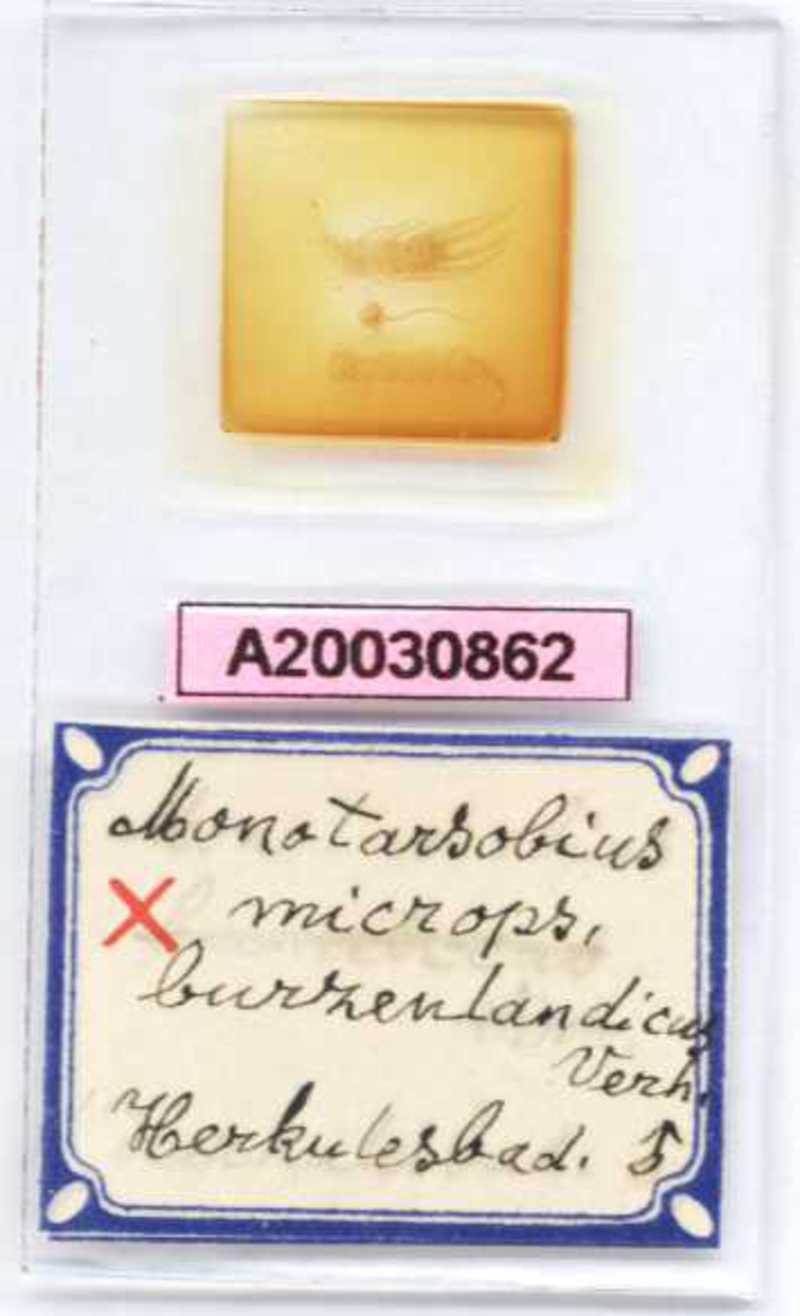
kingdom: Animalia
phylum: Arthropoda
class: Chilopoda
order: Lithobiomorpha
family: Lithobiidae
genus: Monotarsobius
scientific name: Monotarsobius microps
